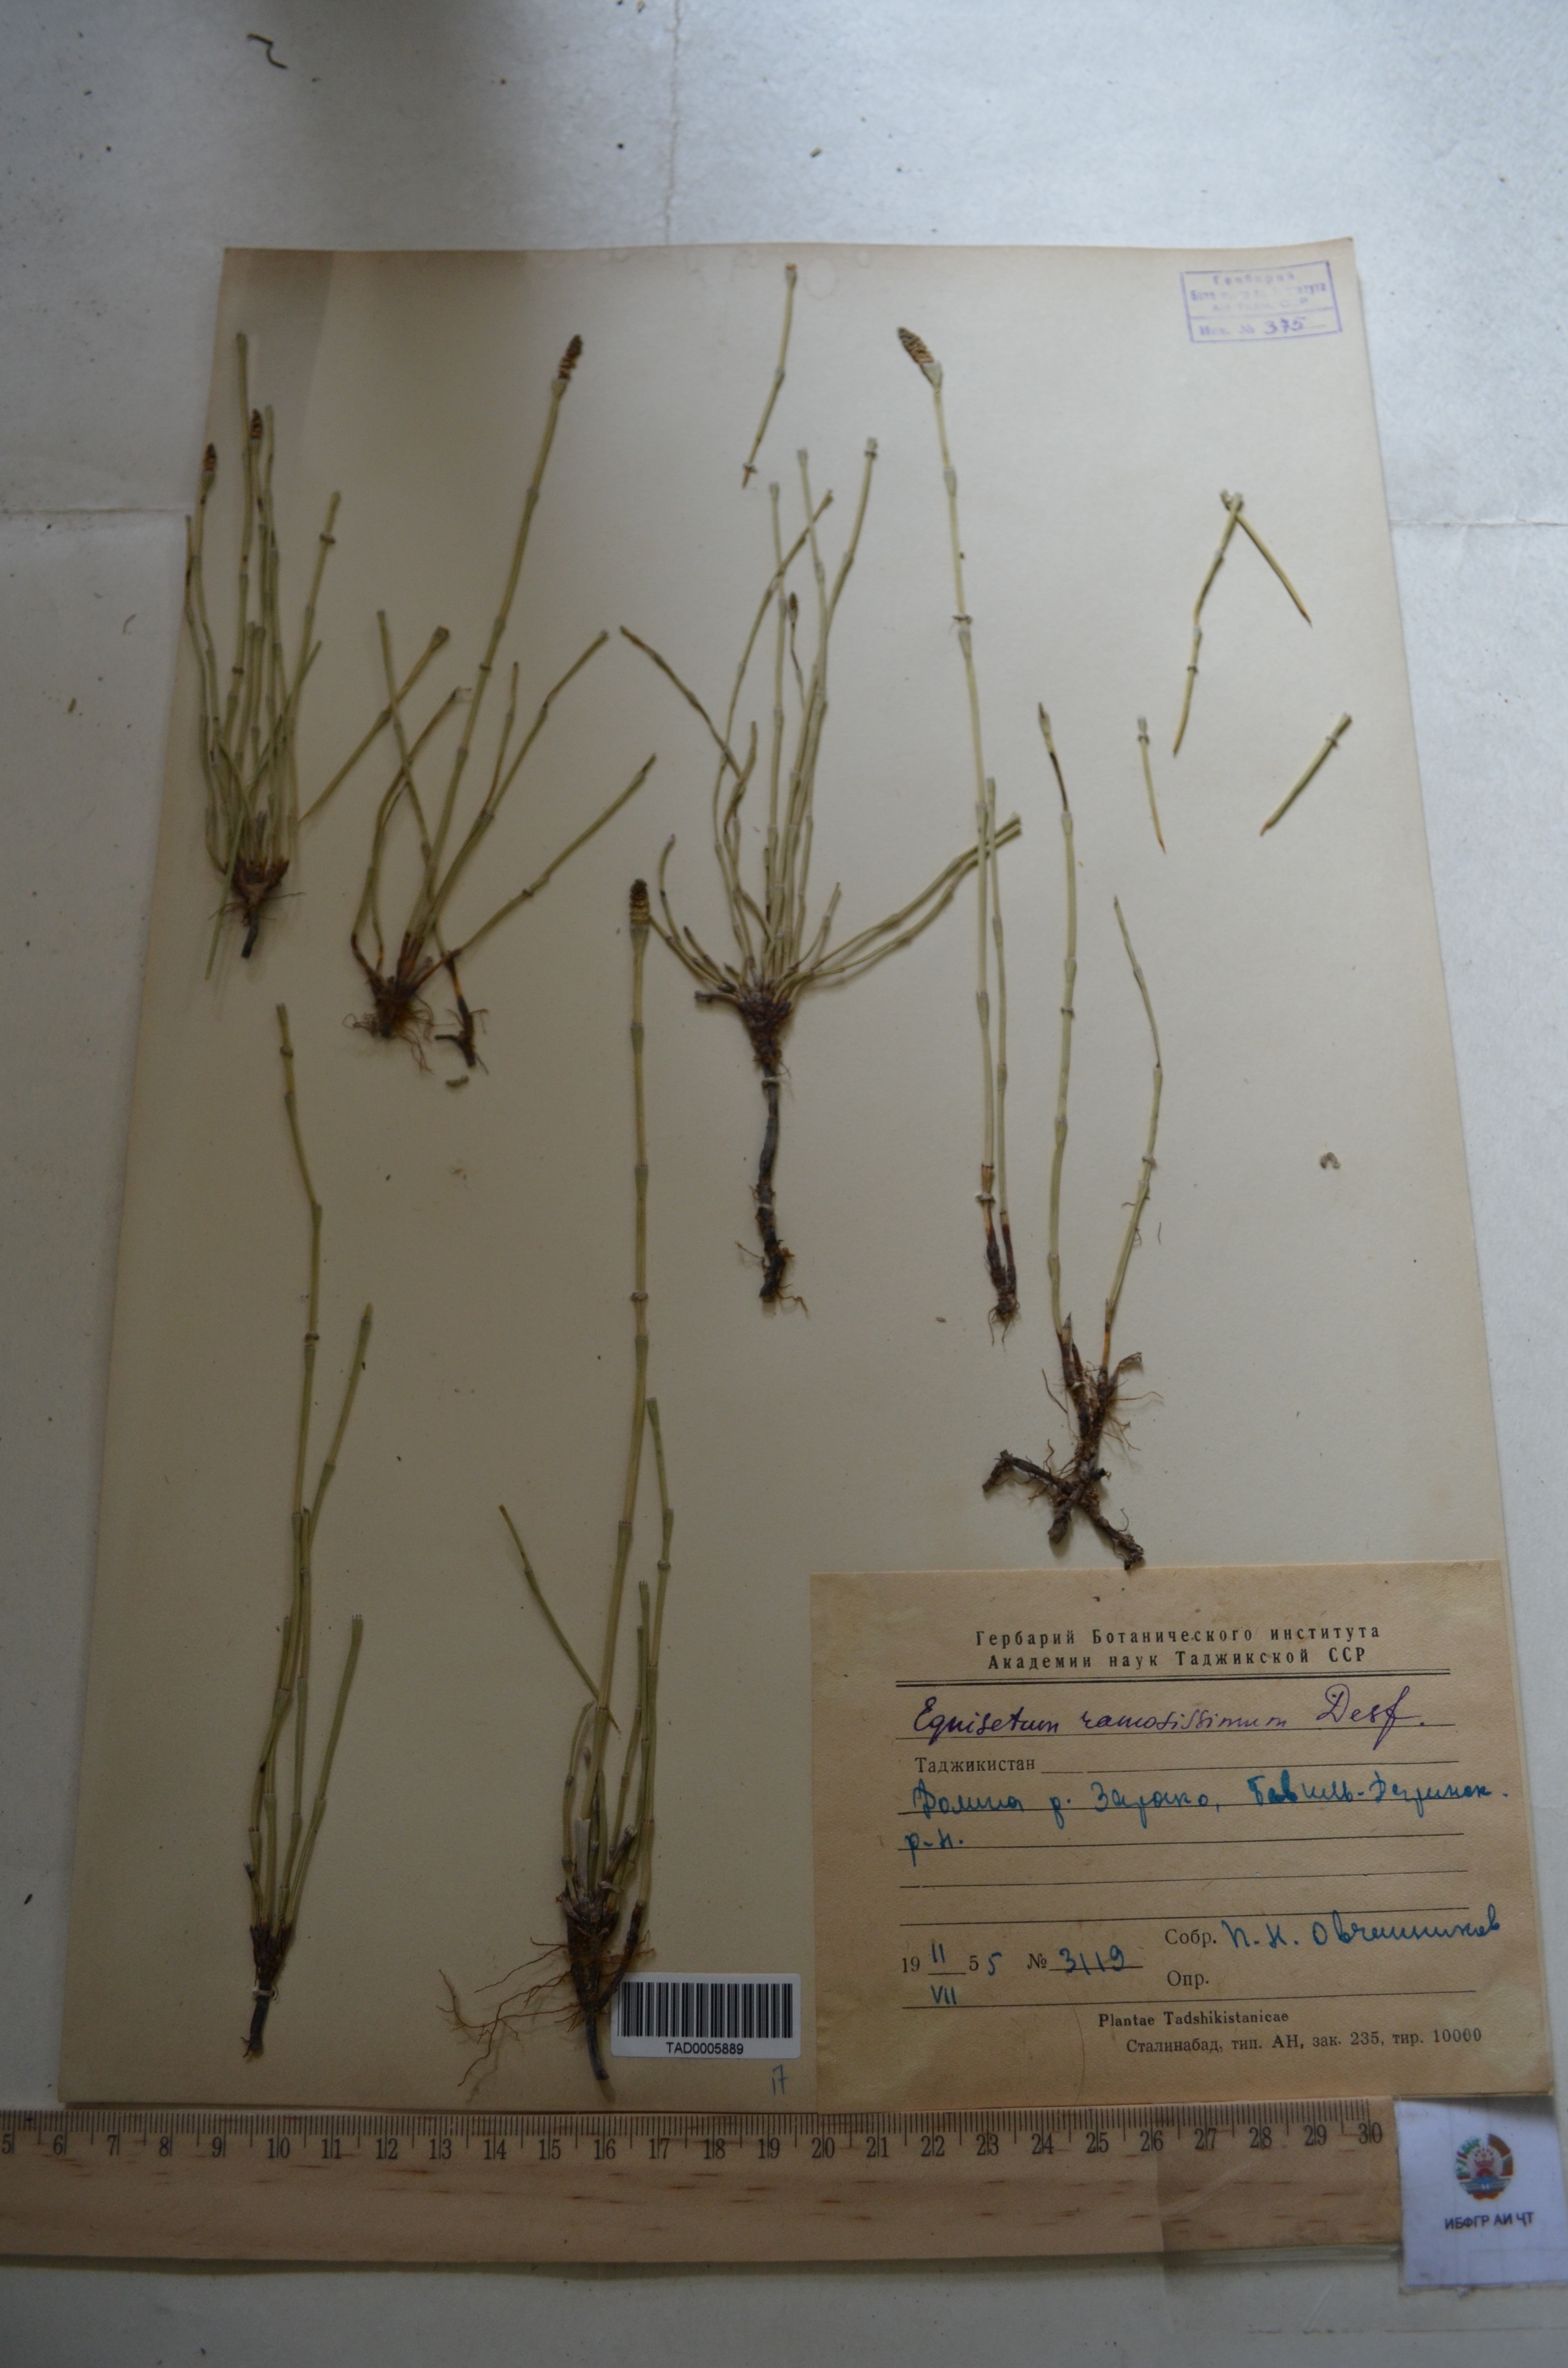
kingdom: Plantae
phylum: Tracheophyta
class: Polypodiopsida
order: Equisetales
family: Equisetaceae
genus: Equisetum
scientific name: Equisetum ramosissimum
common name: Branched horsetail
